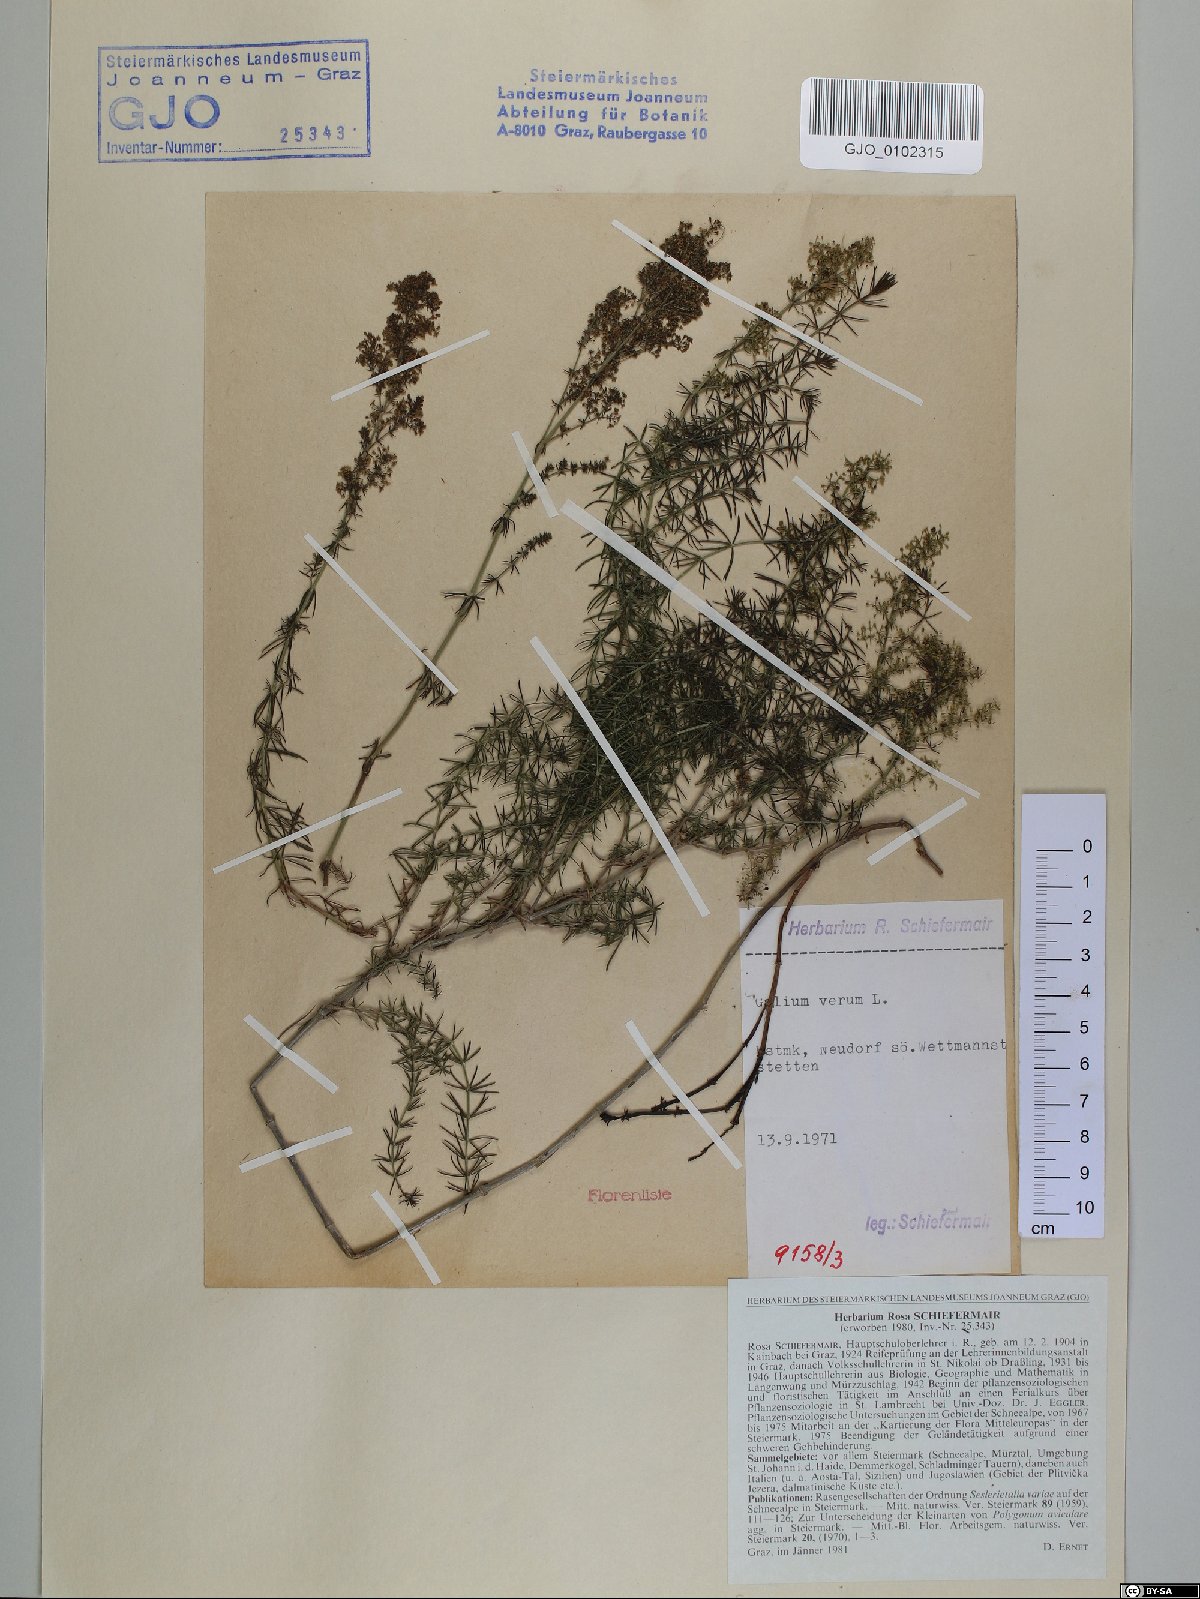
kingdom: Plantae
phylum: Tracheophyta
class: Magnoliopsida
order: Gentianales
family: Rubiaceae
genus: Galium
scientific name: Galium verum
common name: Lady's bedstraw
